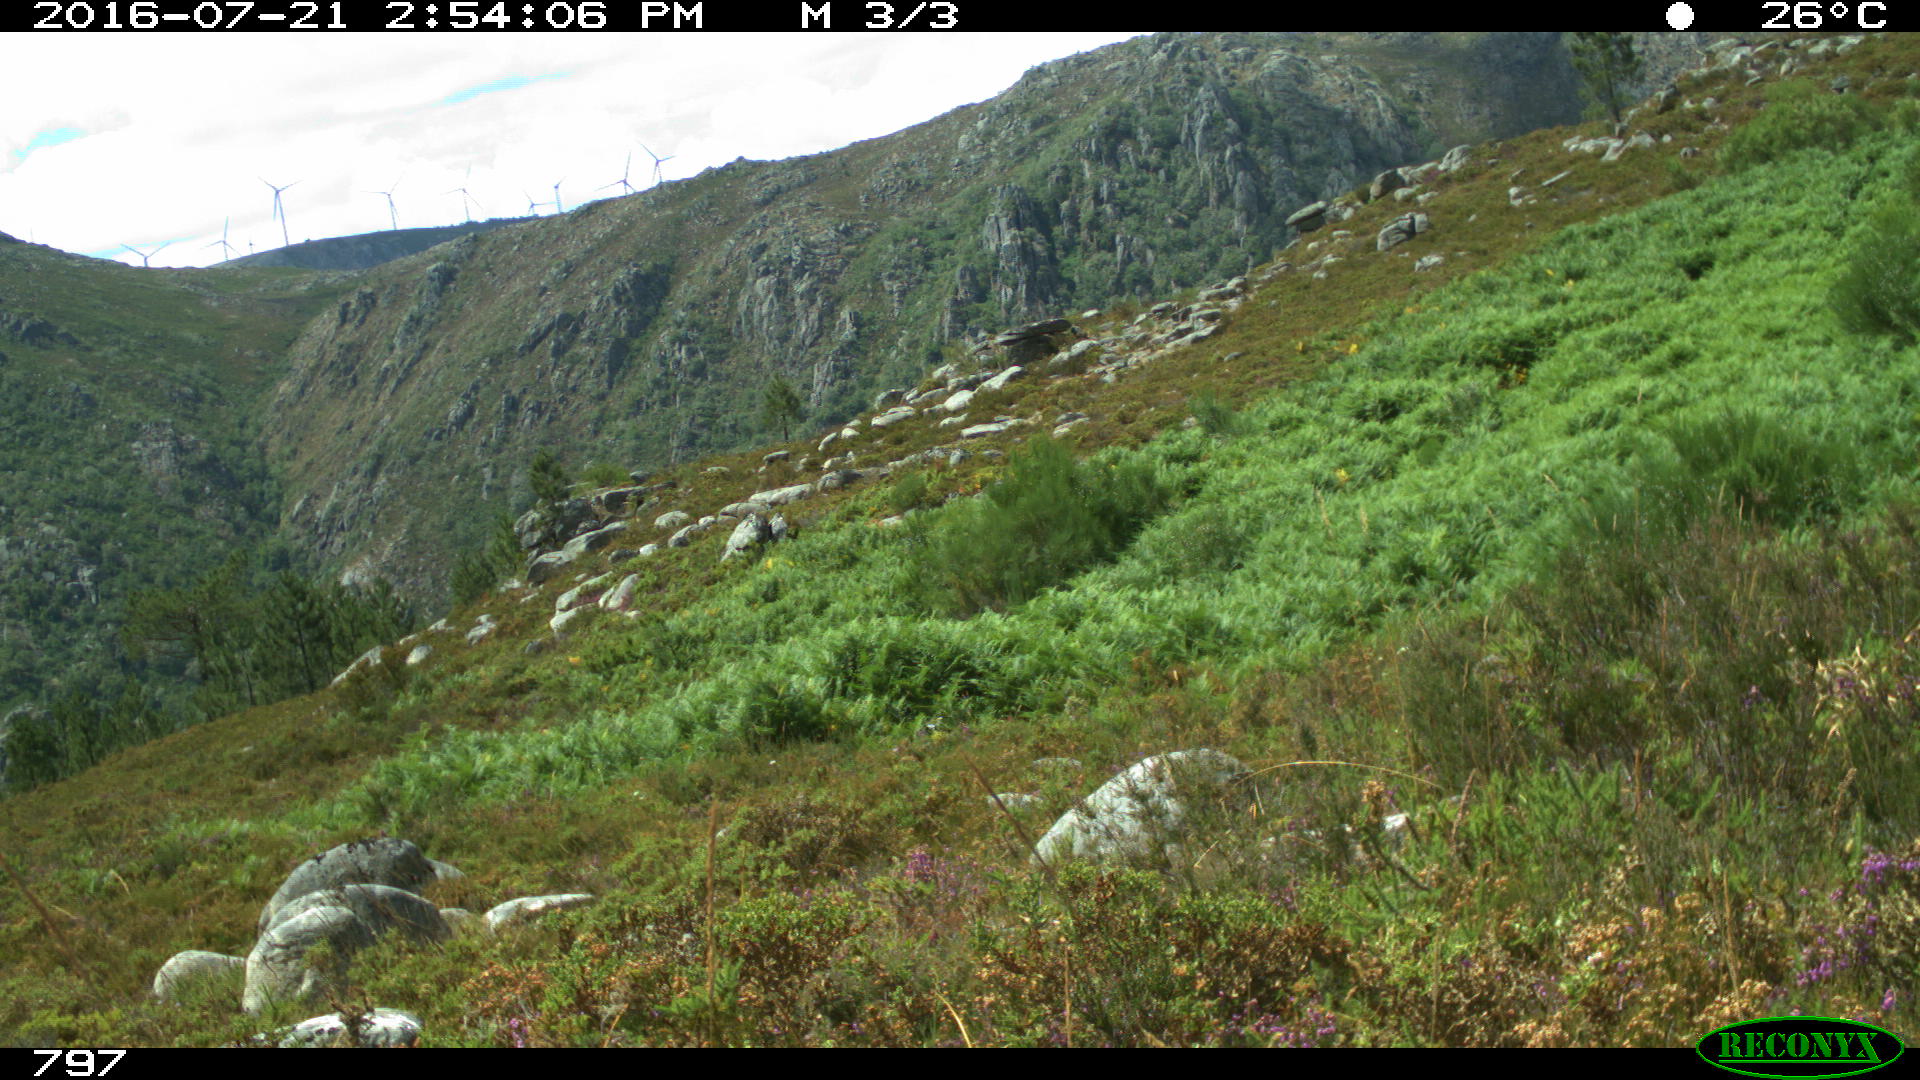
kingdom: Animalia
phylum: Chordata
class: Mammalia
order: Artiodactyla
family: Bovidae
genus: Bos
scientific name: Bos taurus
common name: Domesticated cattle
